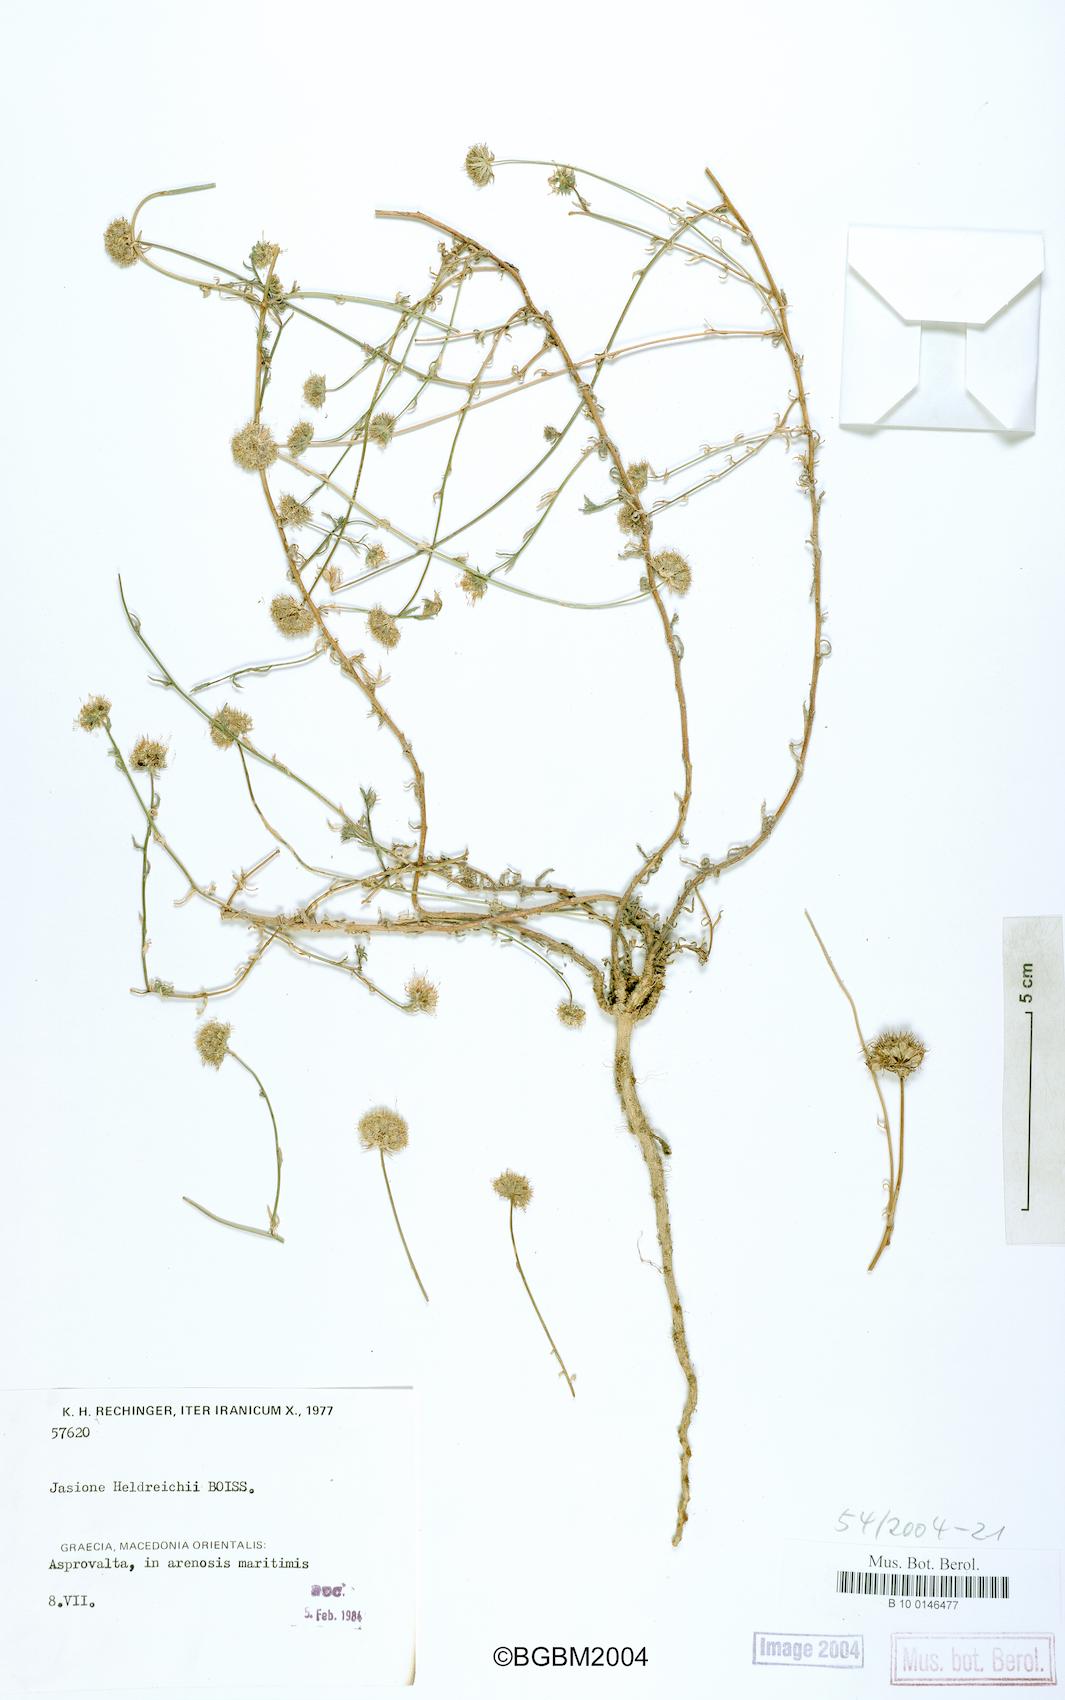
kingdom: Plantae
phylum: Tracheophyta
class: Magnoliopsida
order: Asterales
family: Campanulaceae
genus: Jasione
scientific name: Jasione heldreichii
